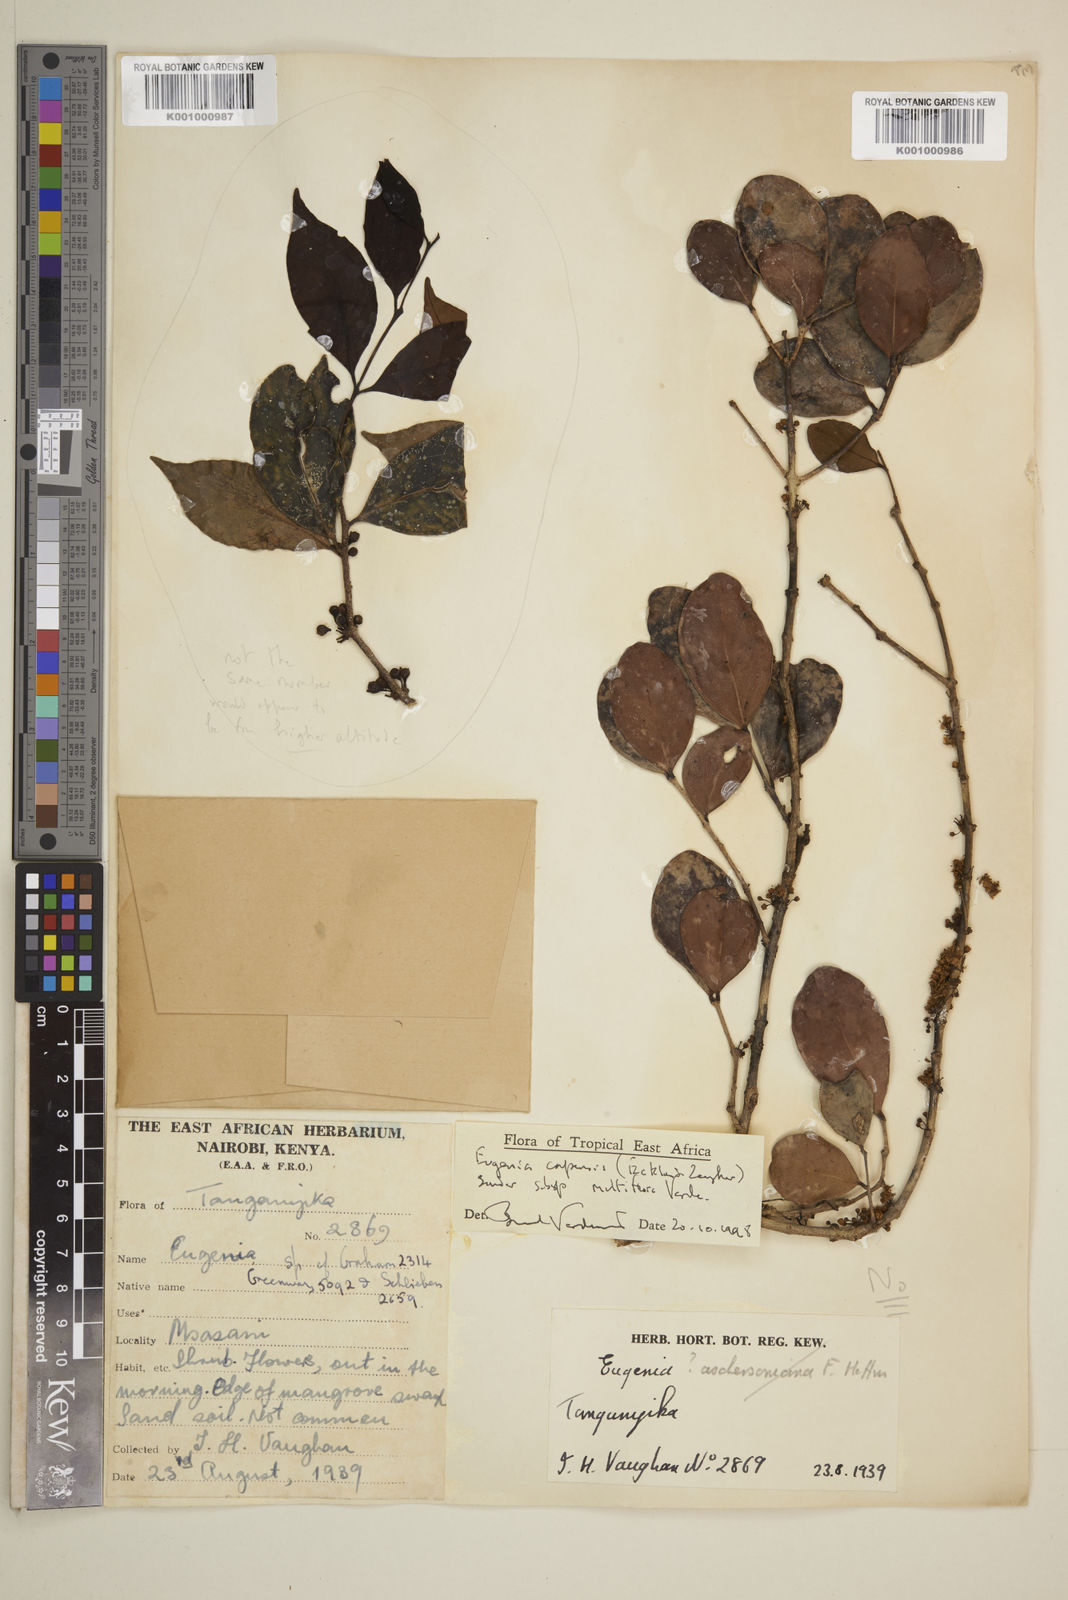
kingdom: Plantae
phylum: Tracheophyta
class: Magnoliopsida
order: Myrtales
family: Myrtaceae
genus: Eugenia
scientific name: Eugenia capensis
